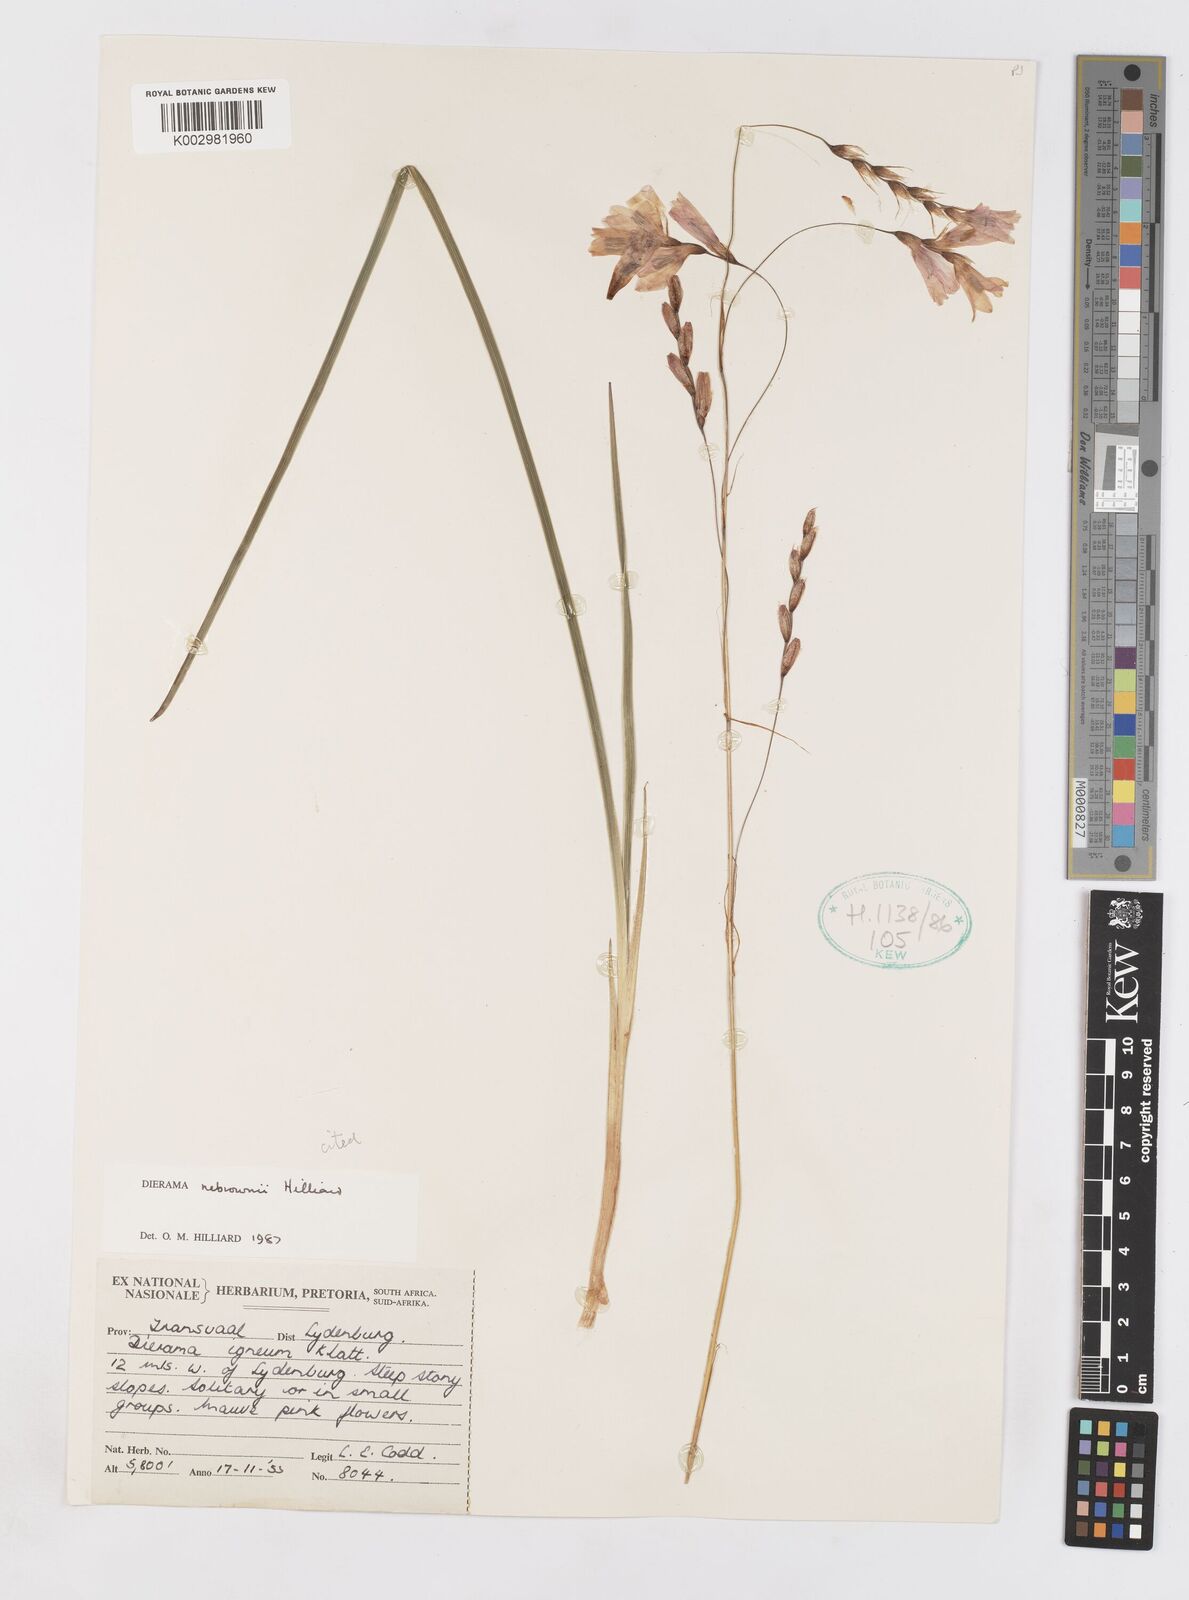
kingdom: Plantae
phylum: Tracheophyta
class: Liliopsida
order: Asparagales
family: Iridaceae
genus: Dierama
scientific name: Dierama nebrownii
